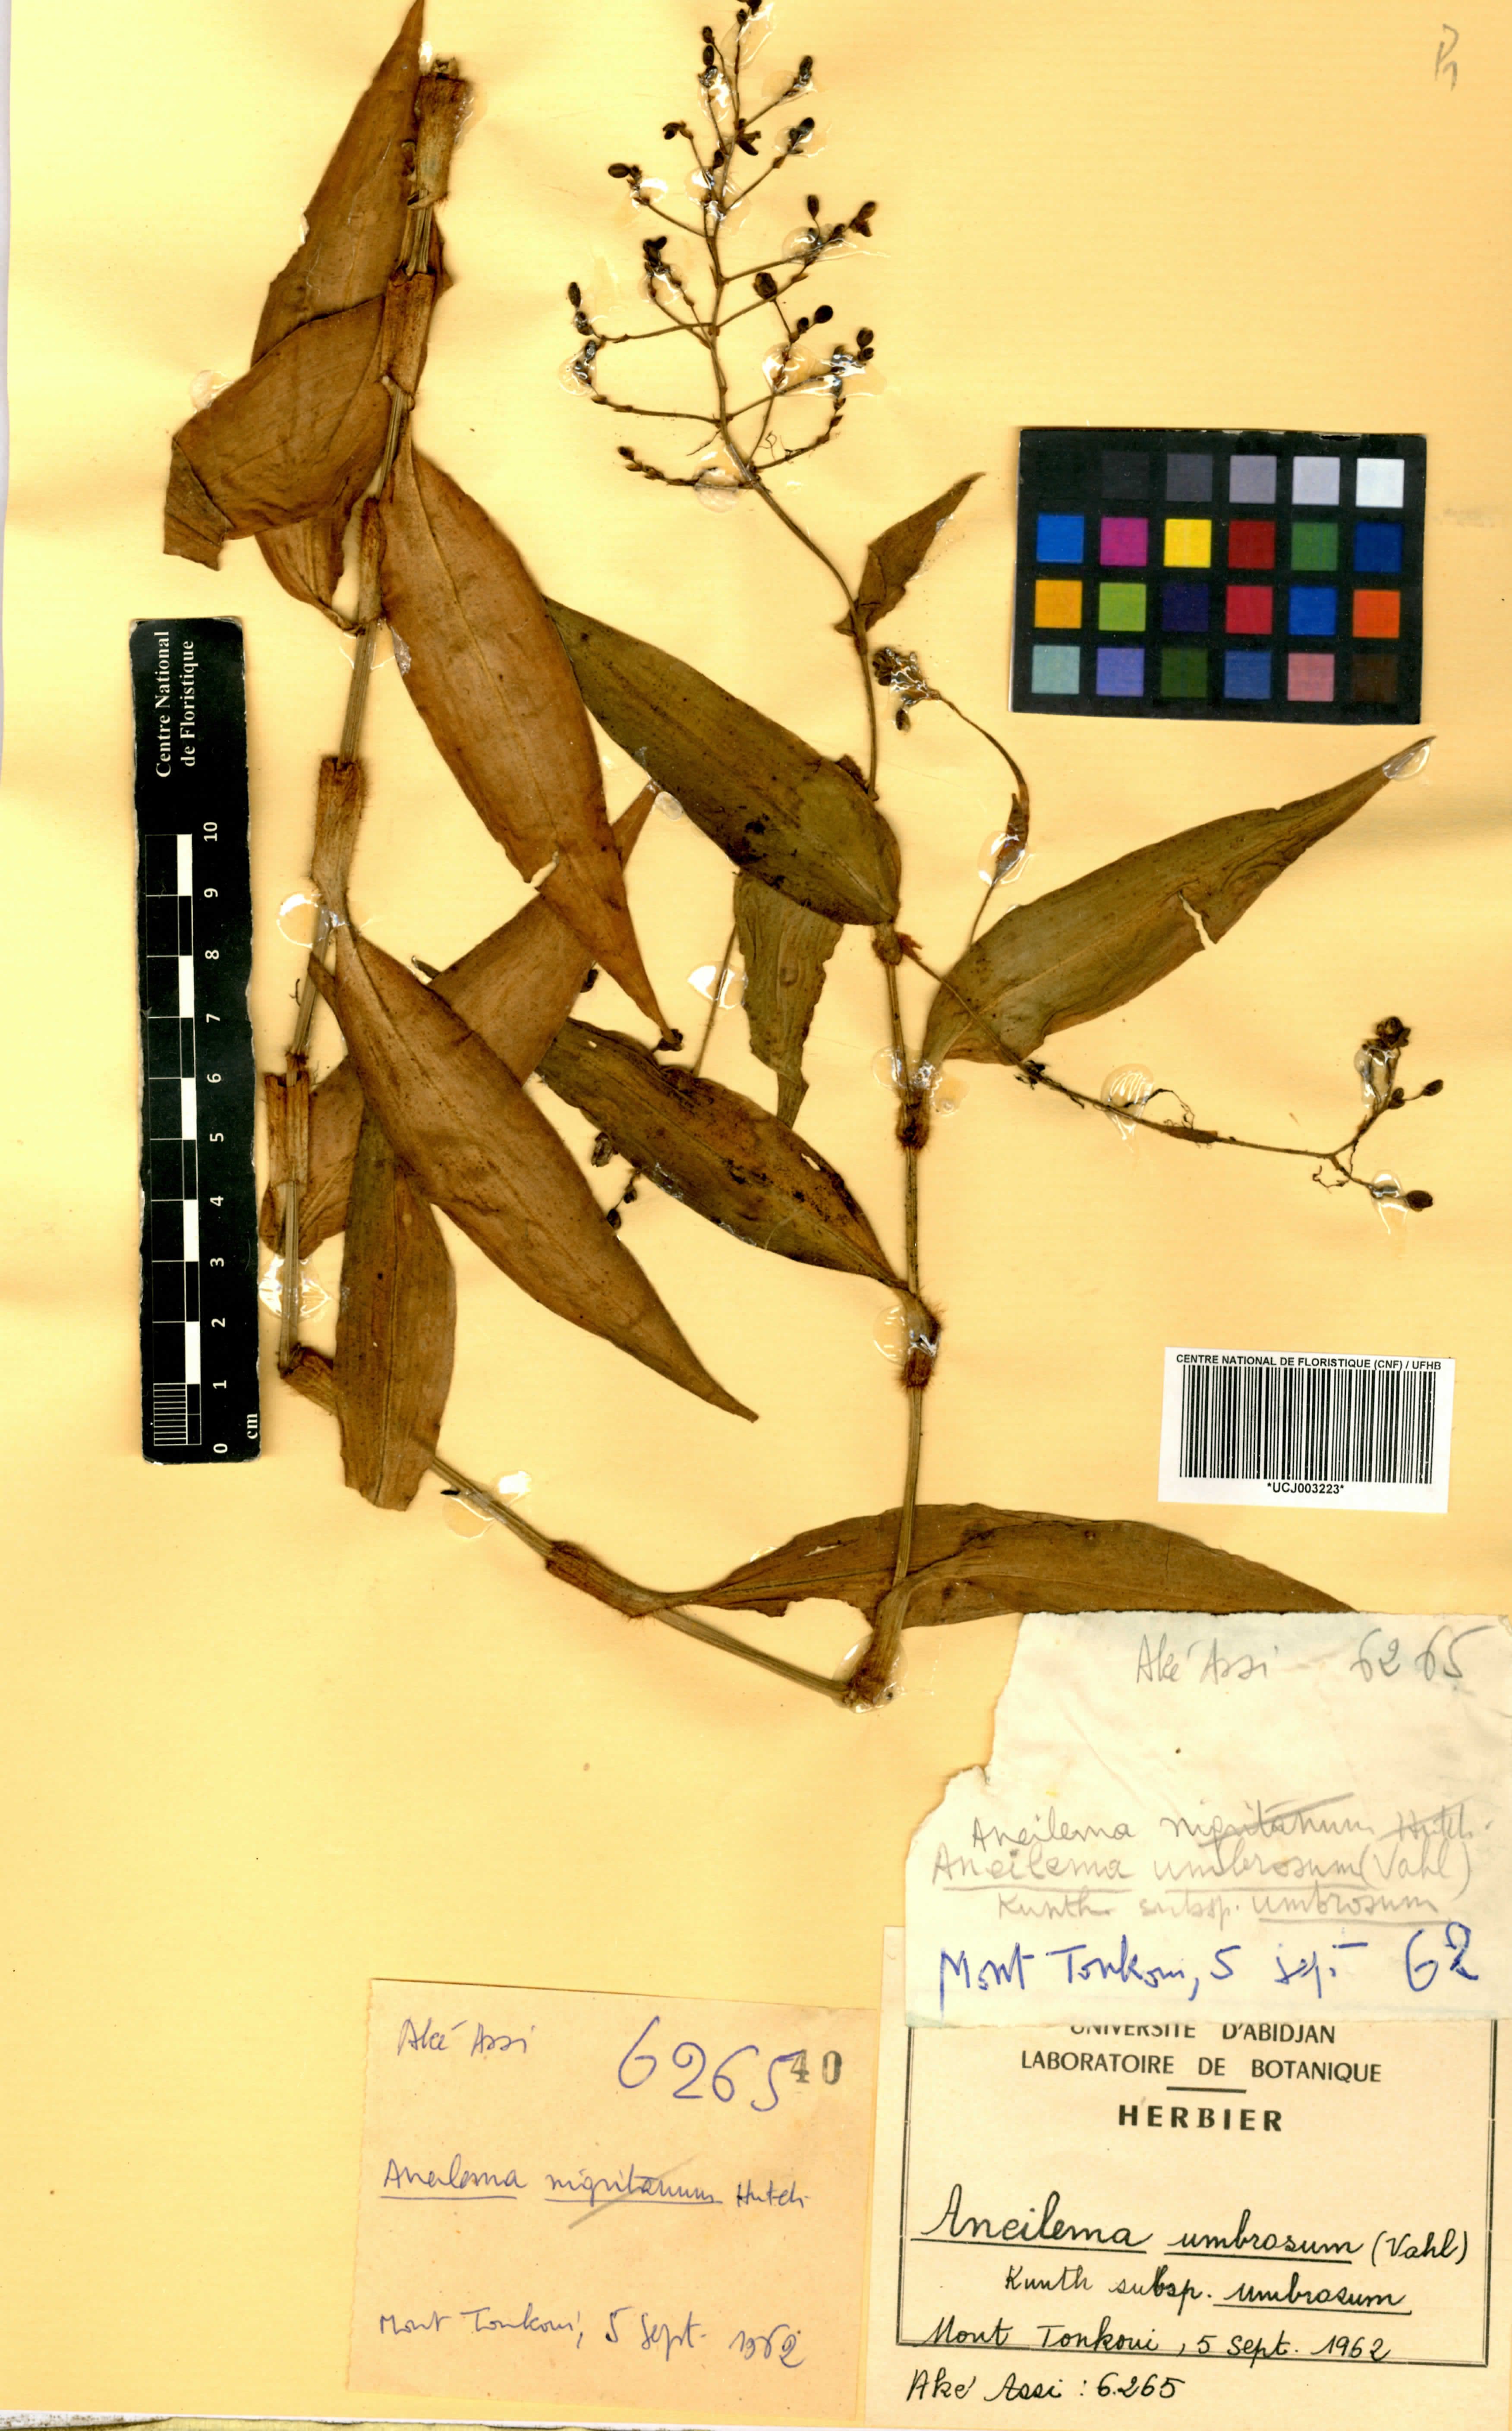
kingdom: Plantae
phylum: Tracheophyta
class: Liliopsida
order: Commelinales
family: Commelinaceae
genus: Aneilema
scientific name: Aneilema umbrosum
